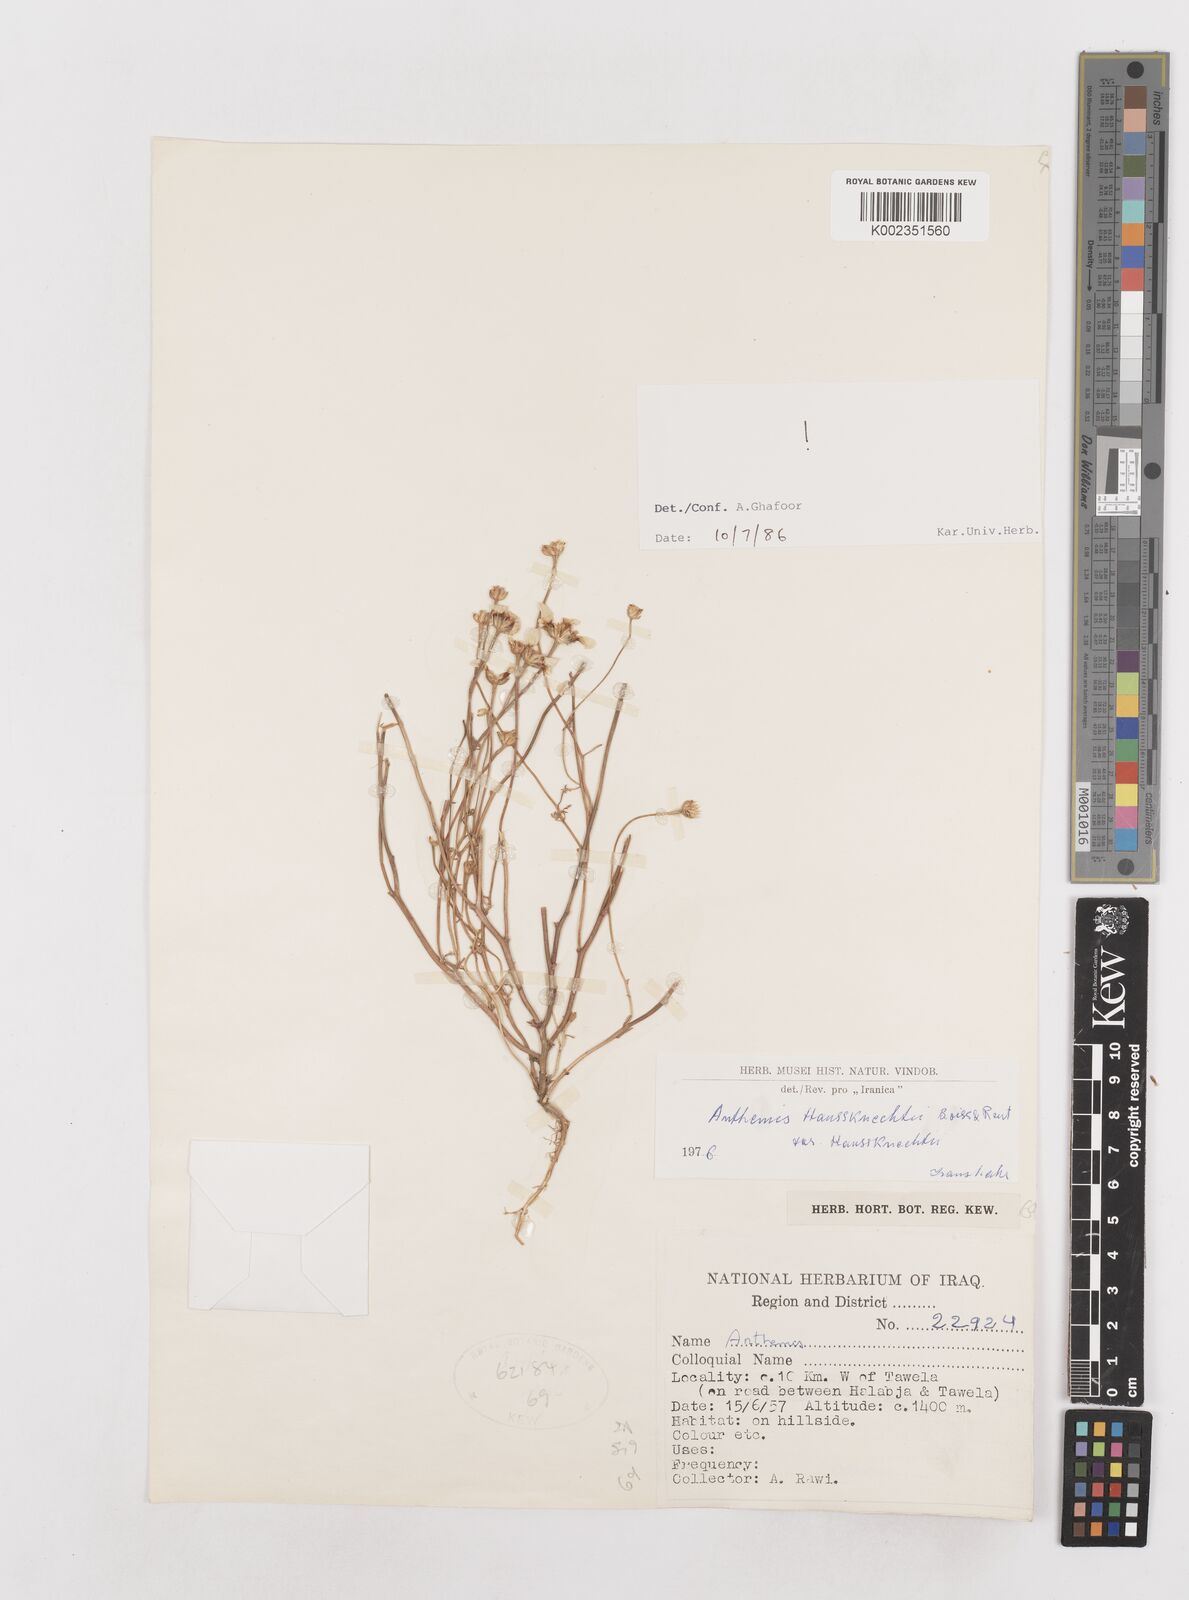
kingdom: Plantae
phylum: Tracheophyta
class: Magnoliopsida
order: Asterales
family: Asteraceae
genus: Anthemis
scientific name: Anthemis haussknechtii
